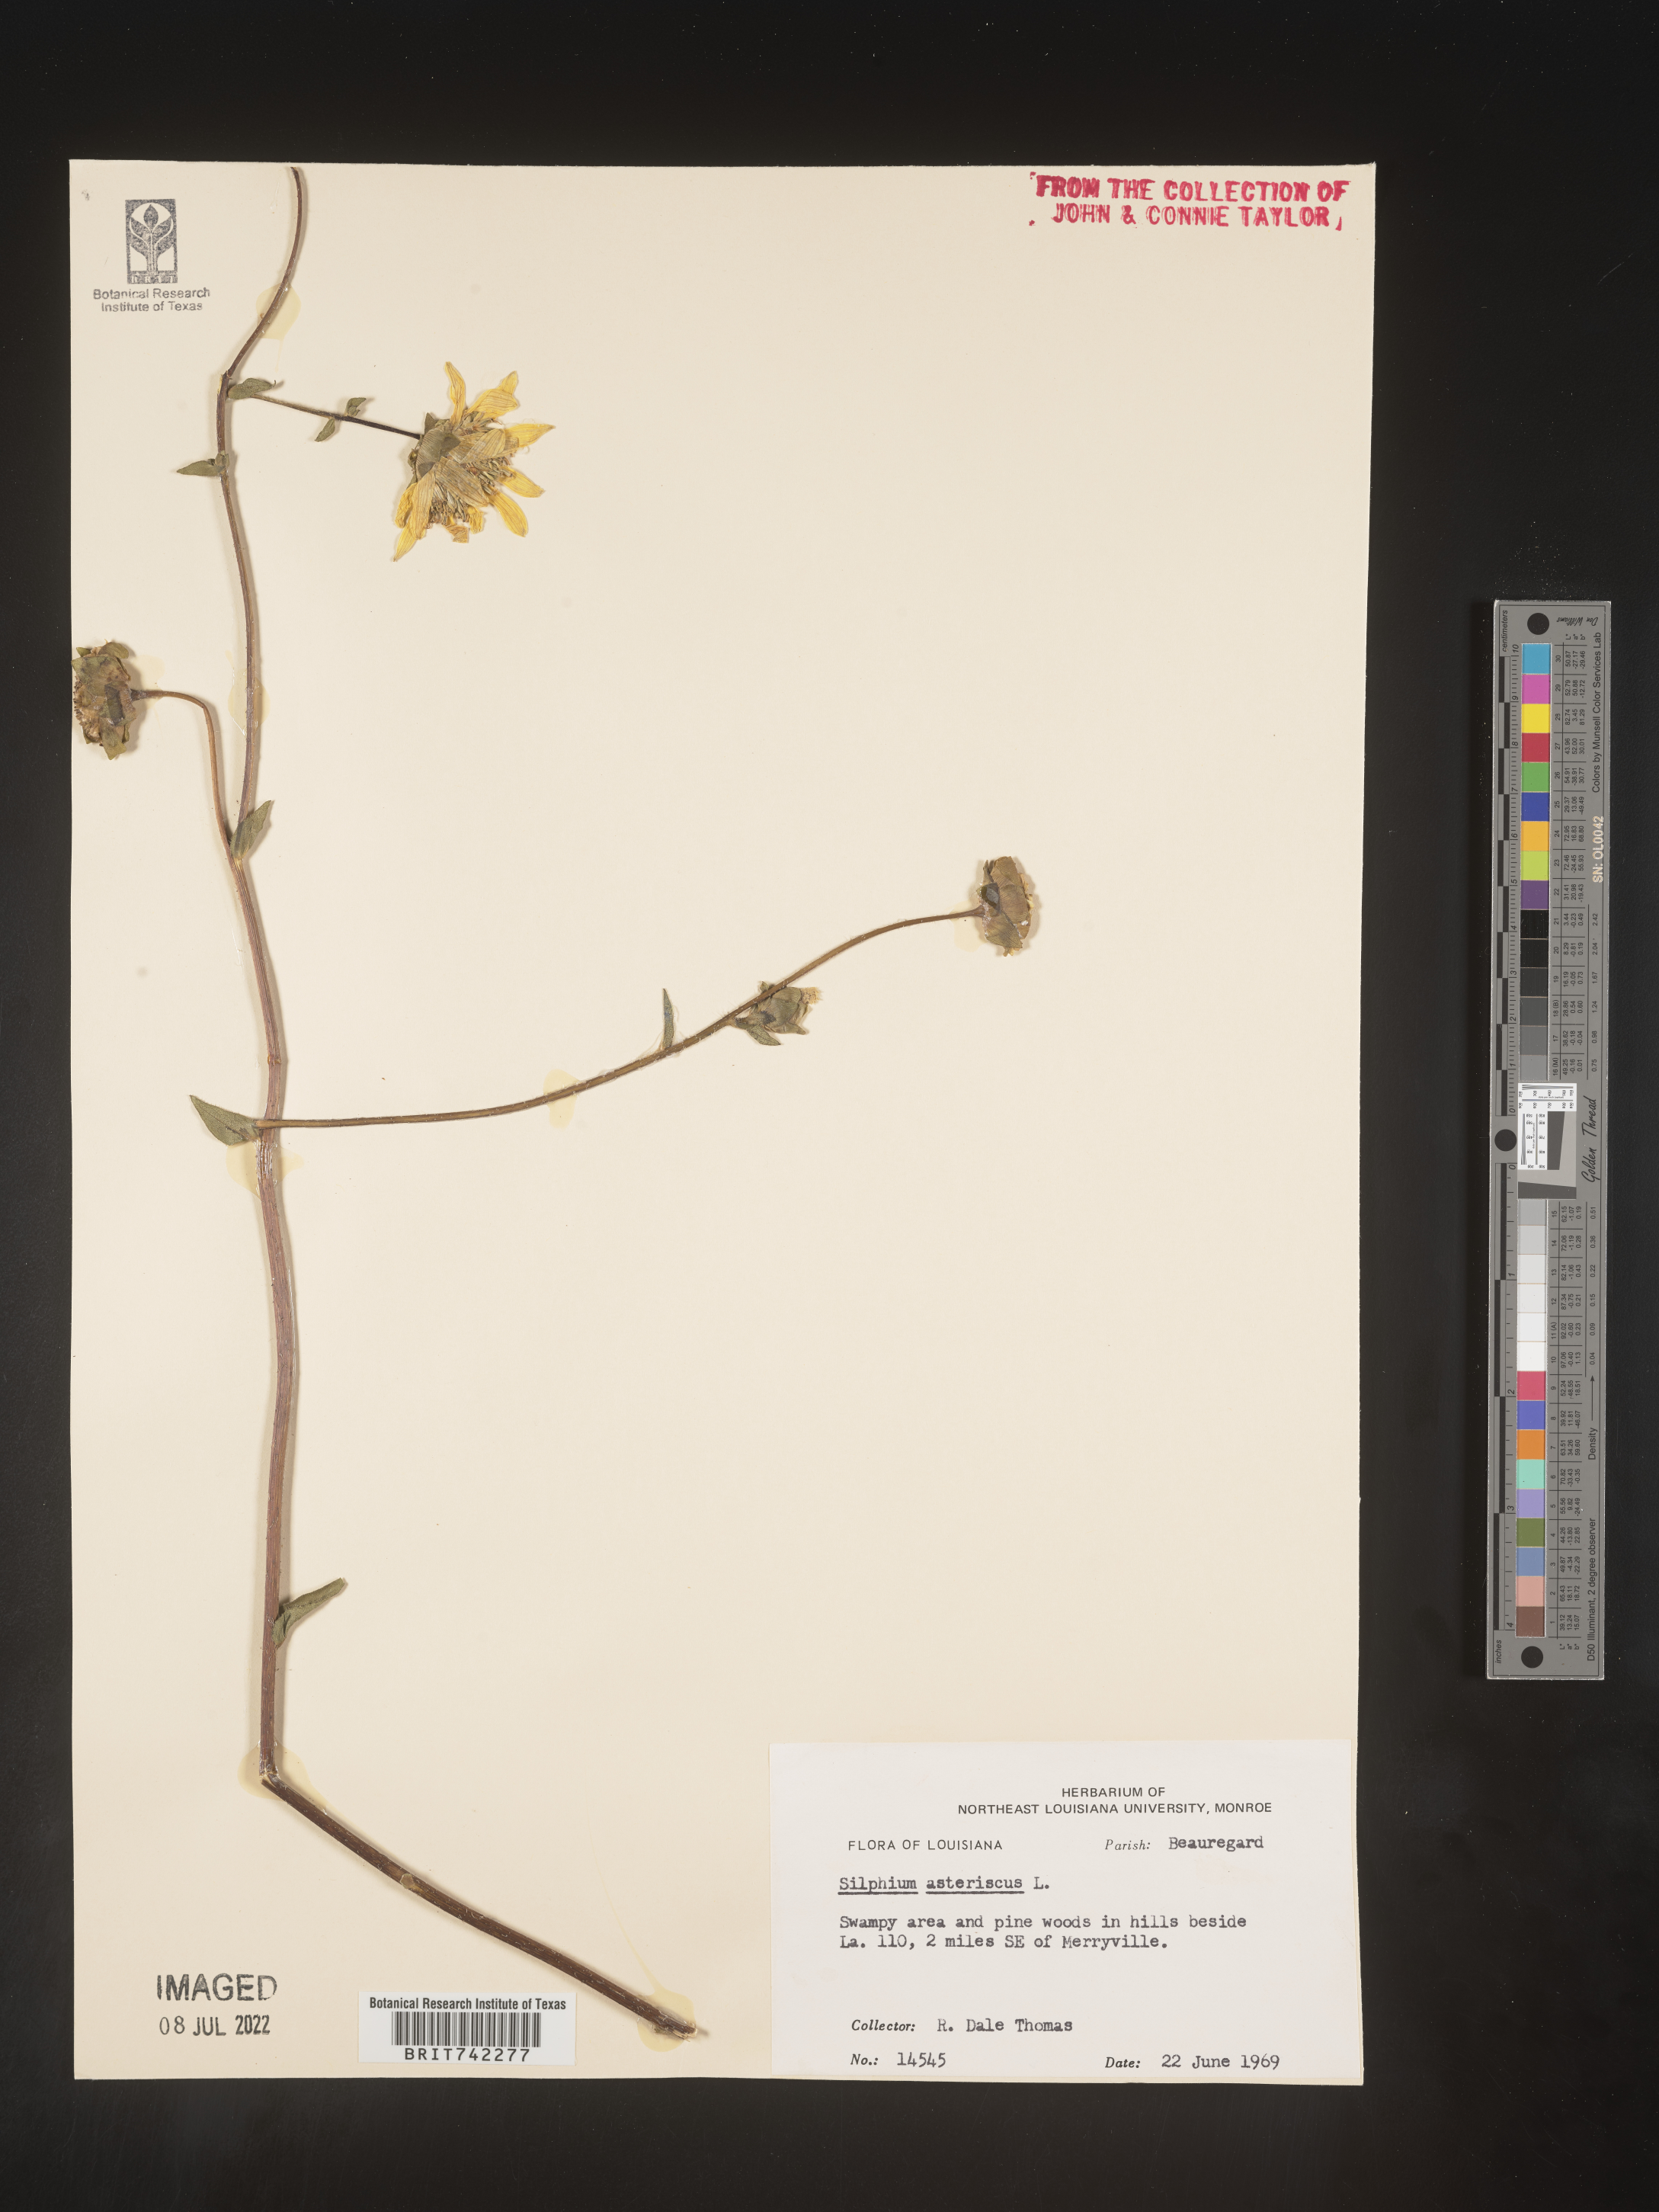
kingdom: Plantae
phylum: Tracheophyta
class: Magnoliopsida
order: Asterales
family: Asteraceae
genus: Silphium
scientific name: Silphium radula
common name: Roughleaf rosinweed
